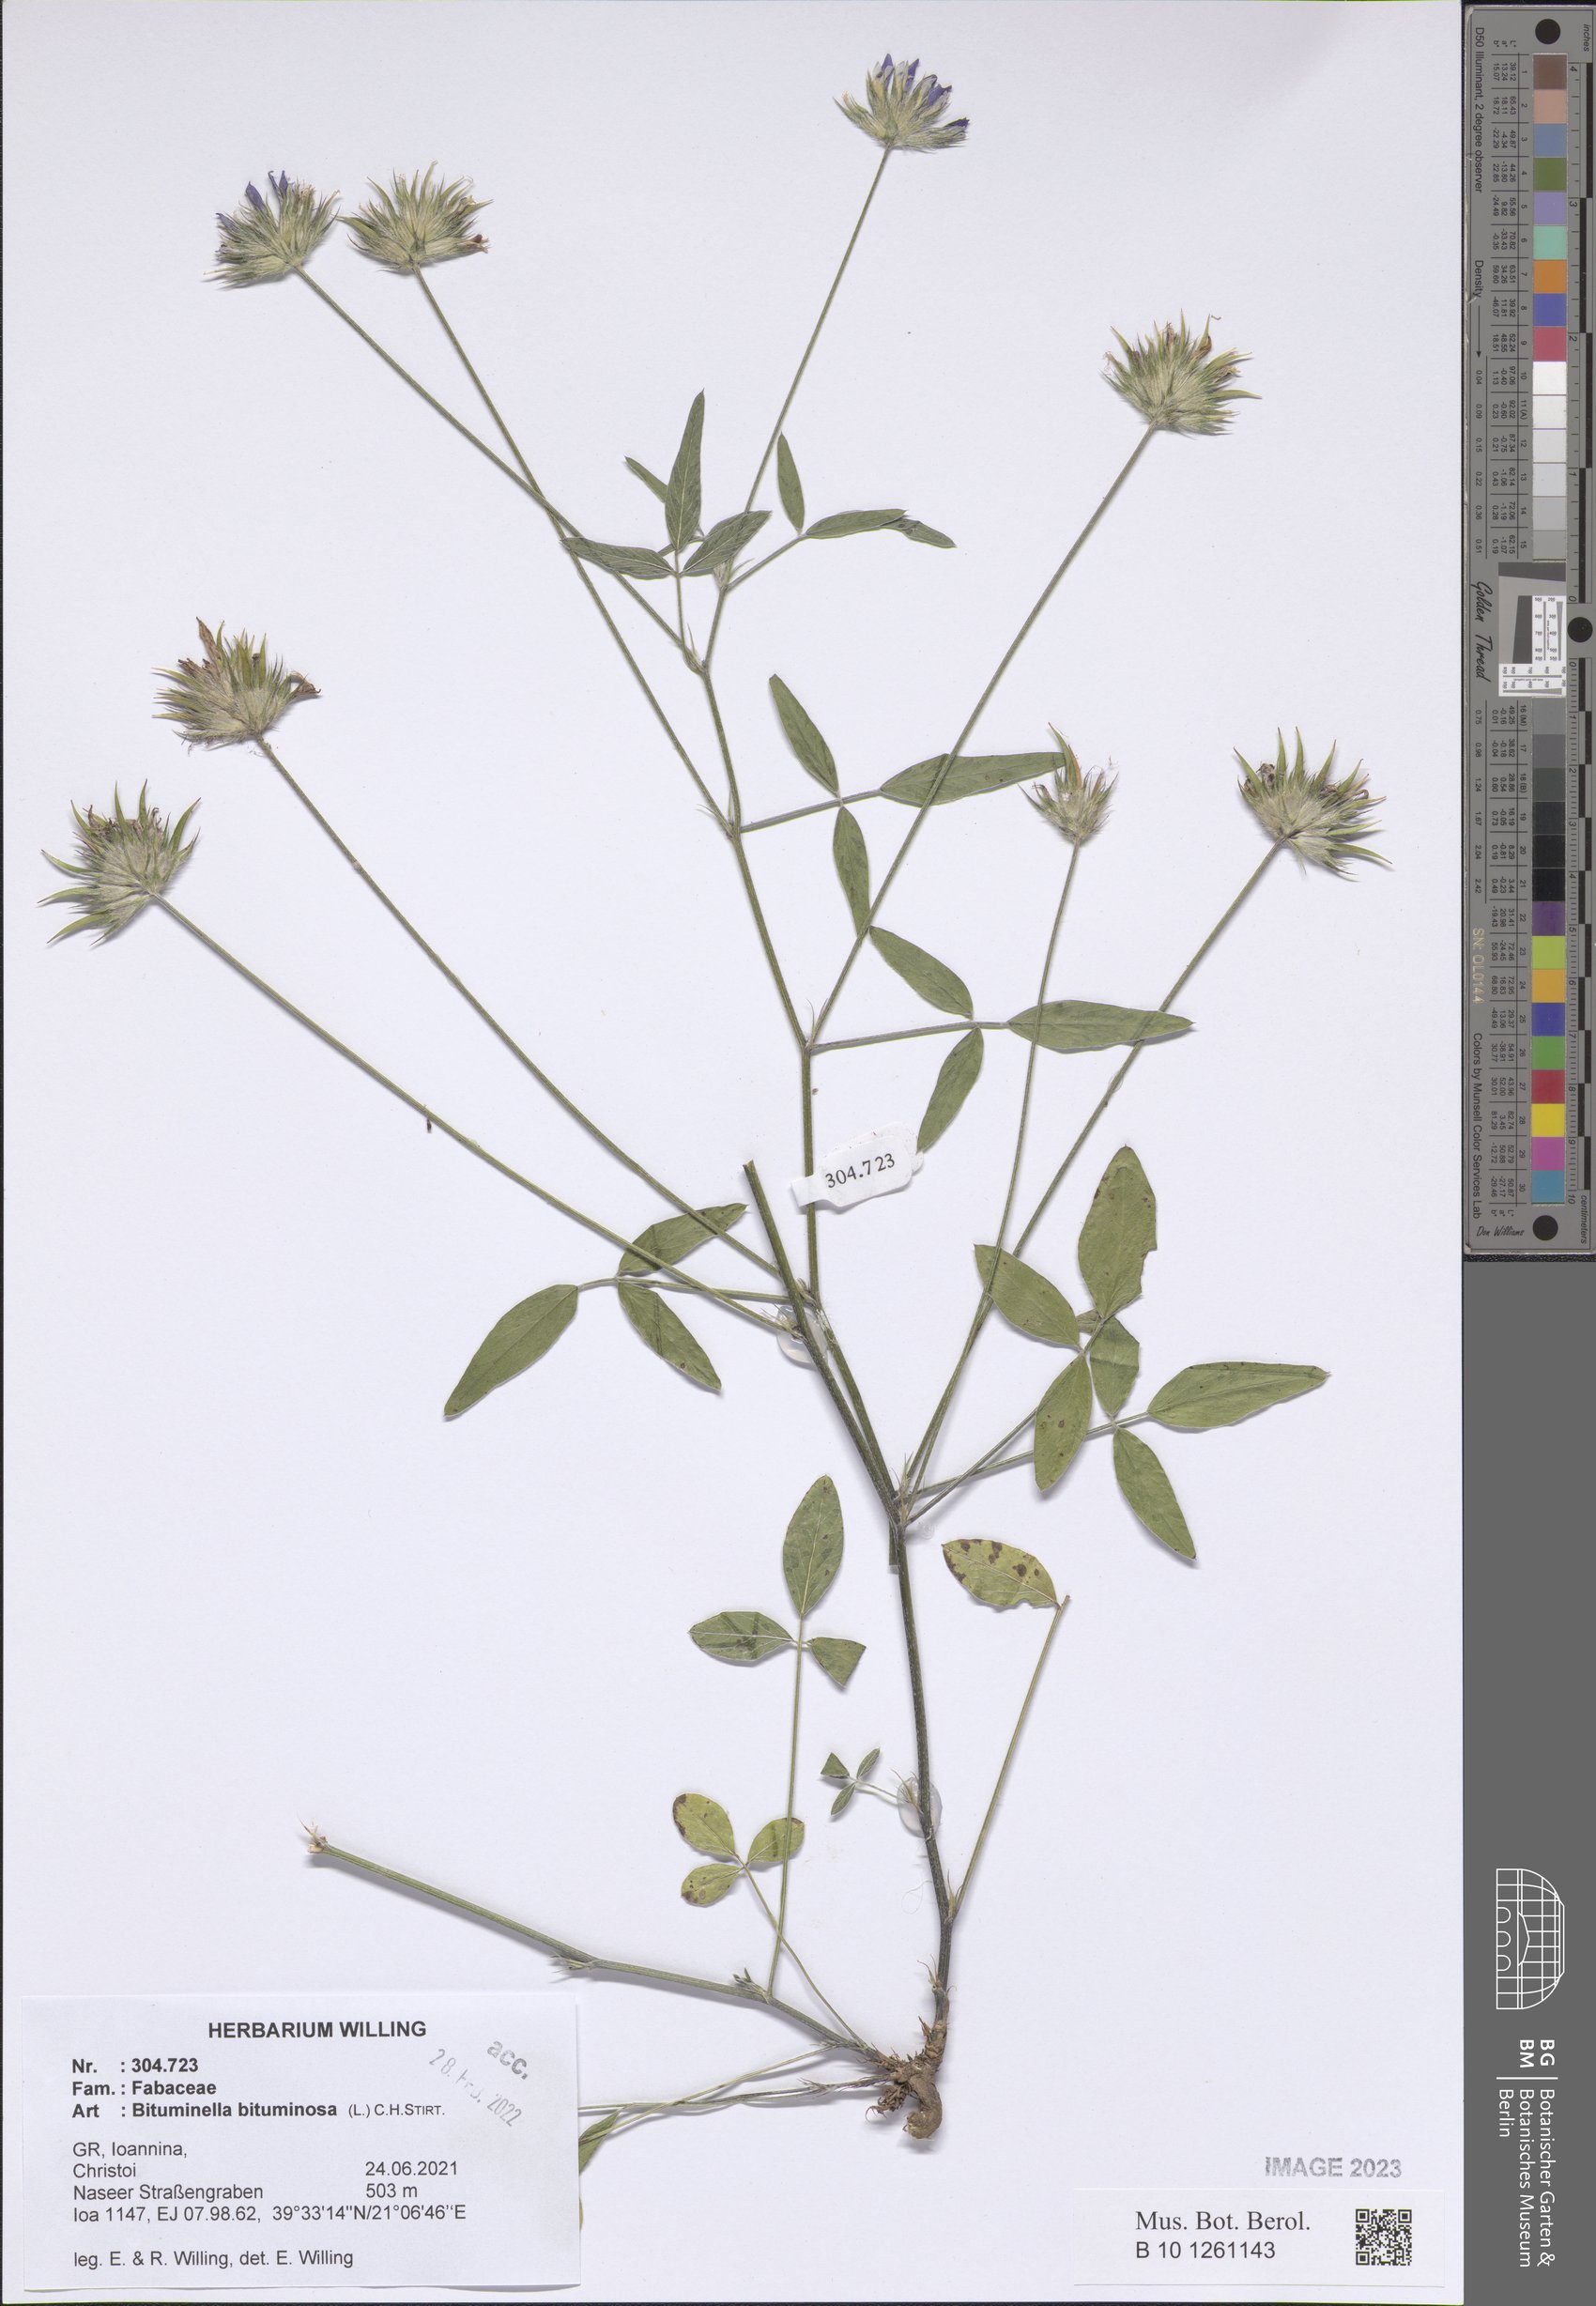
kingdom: Plantae
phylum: Tracheophyta
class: Magnoliopsida
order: Fabales
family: Fabaceae
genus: Bituminaria
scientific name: Bituminaria bituminosa
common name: Arabian pea
